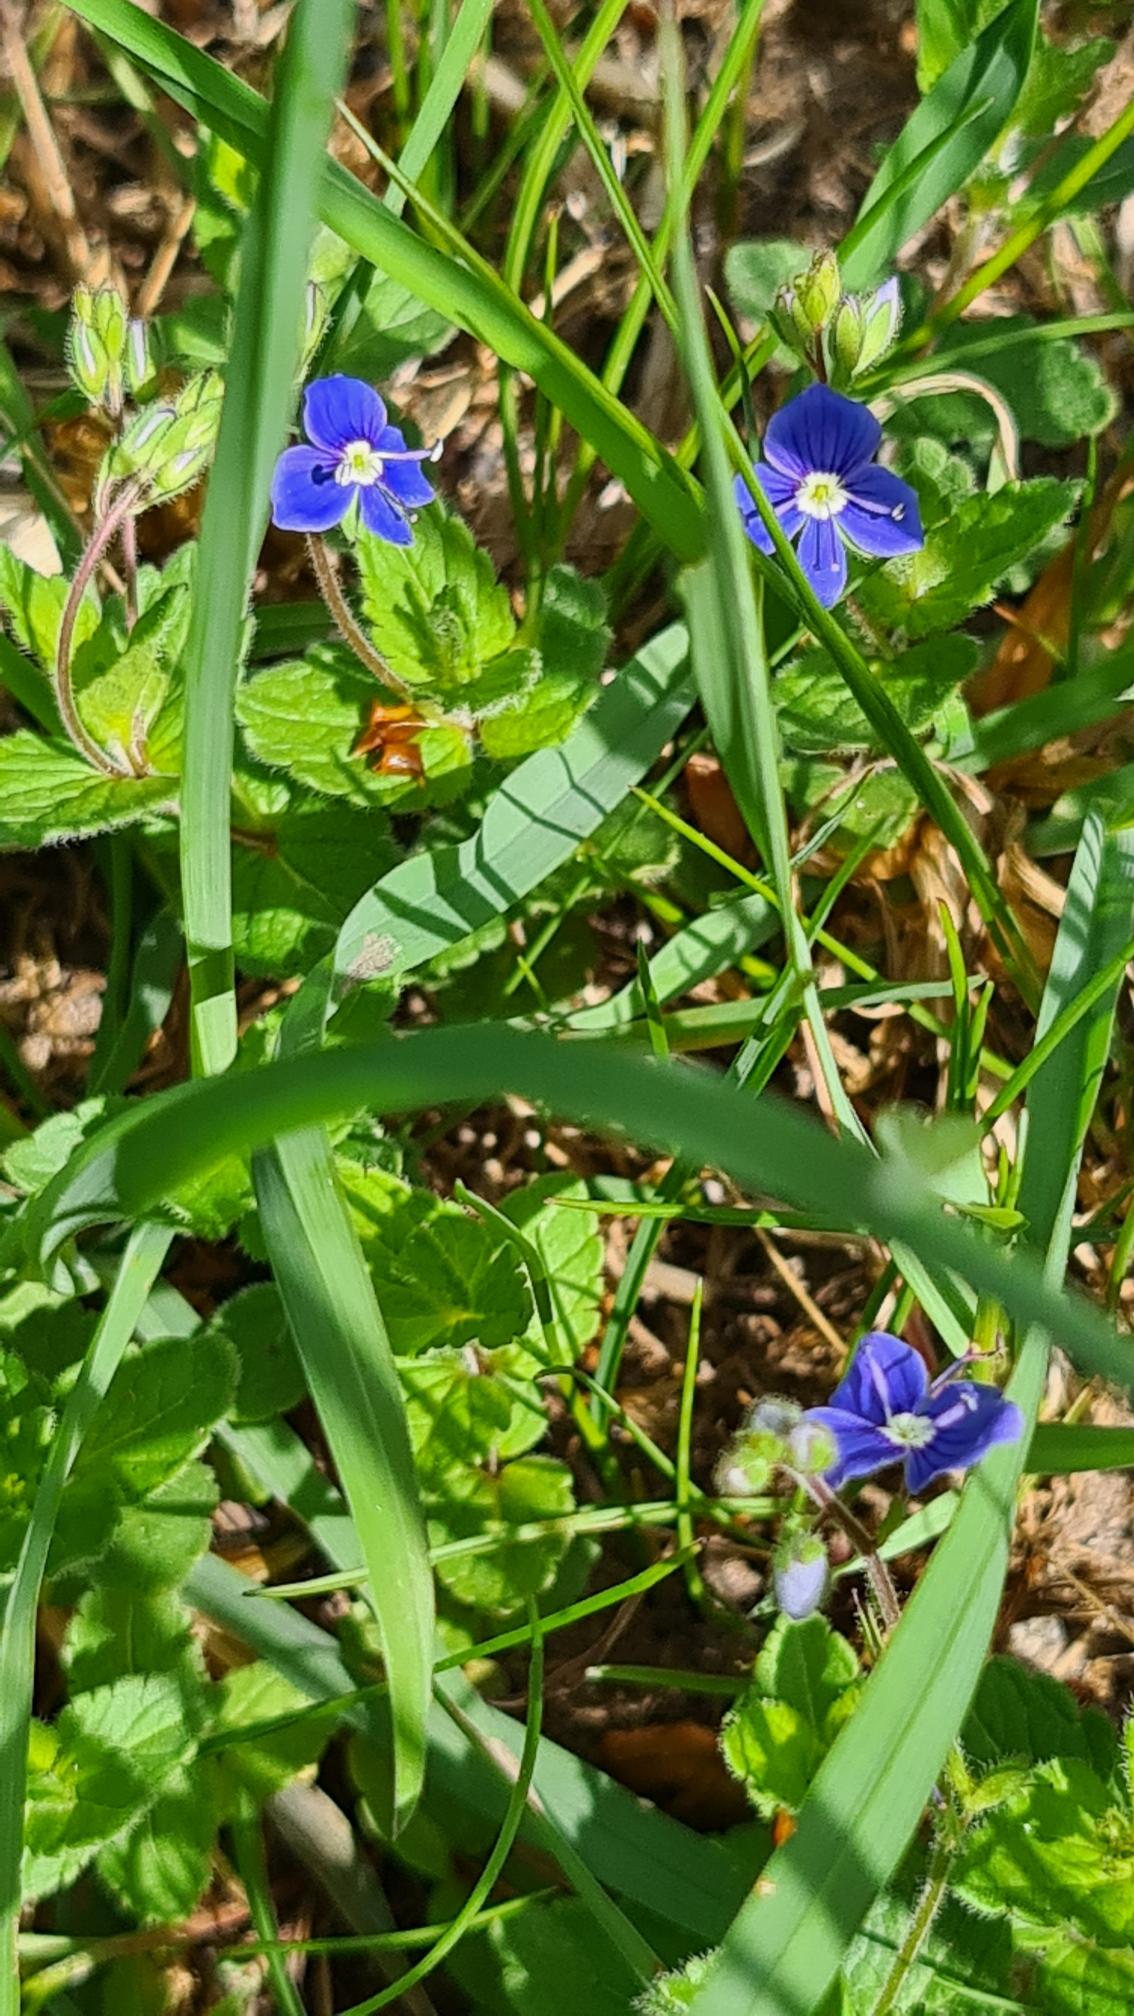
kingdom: Plantae
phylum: Tracheophyta
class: Magnoliopsida
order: Lamiales
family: Plantaginaceae
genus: Veronica
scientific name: Veronica chamaedrys
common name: Tveskægget ærenpris
